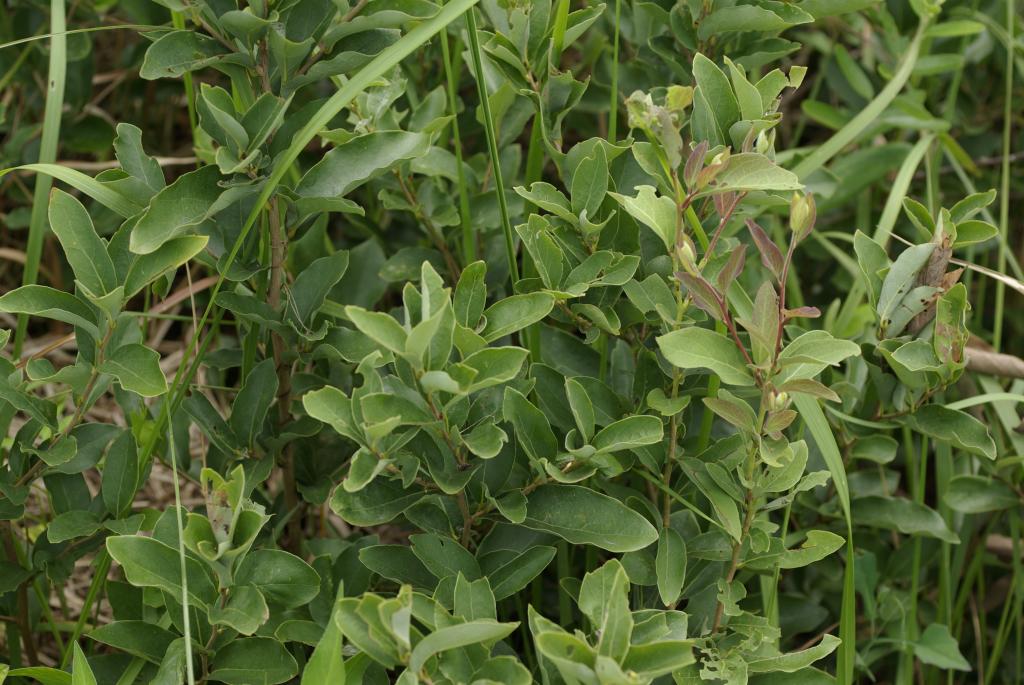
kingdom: Plantae
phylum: Tracheophyta
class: Magnoliopsida
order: Laurales
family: Lauraceae
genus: Lindera
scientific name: Lindera glauca
